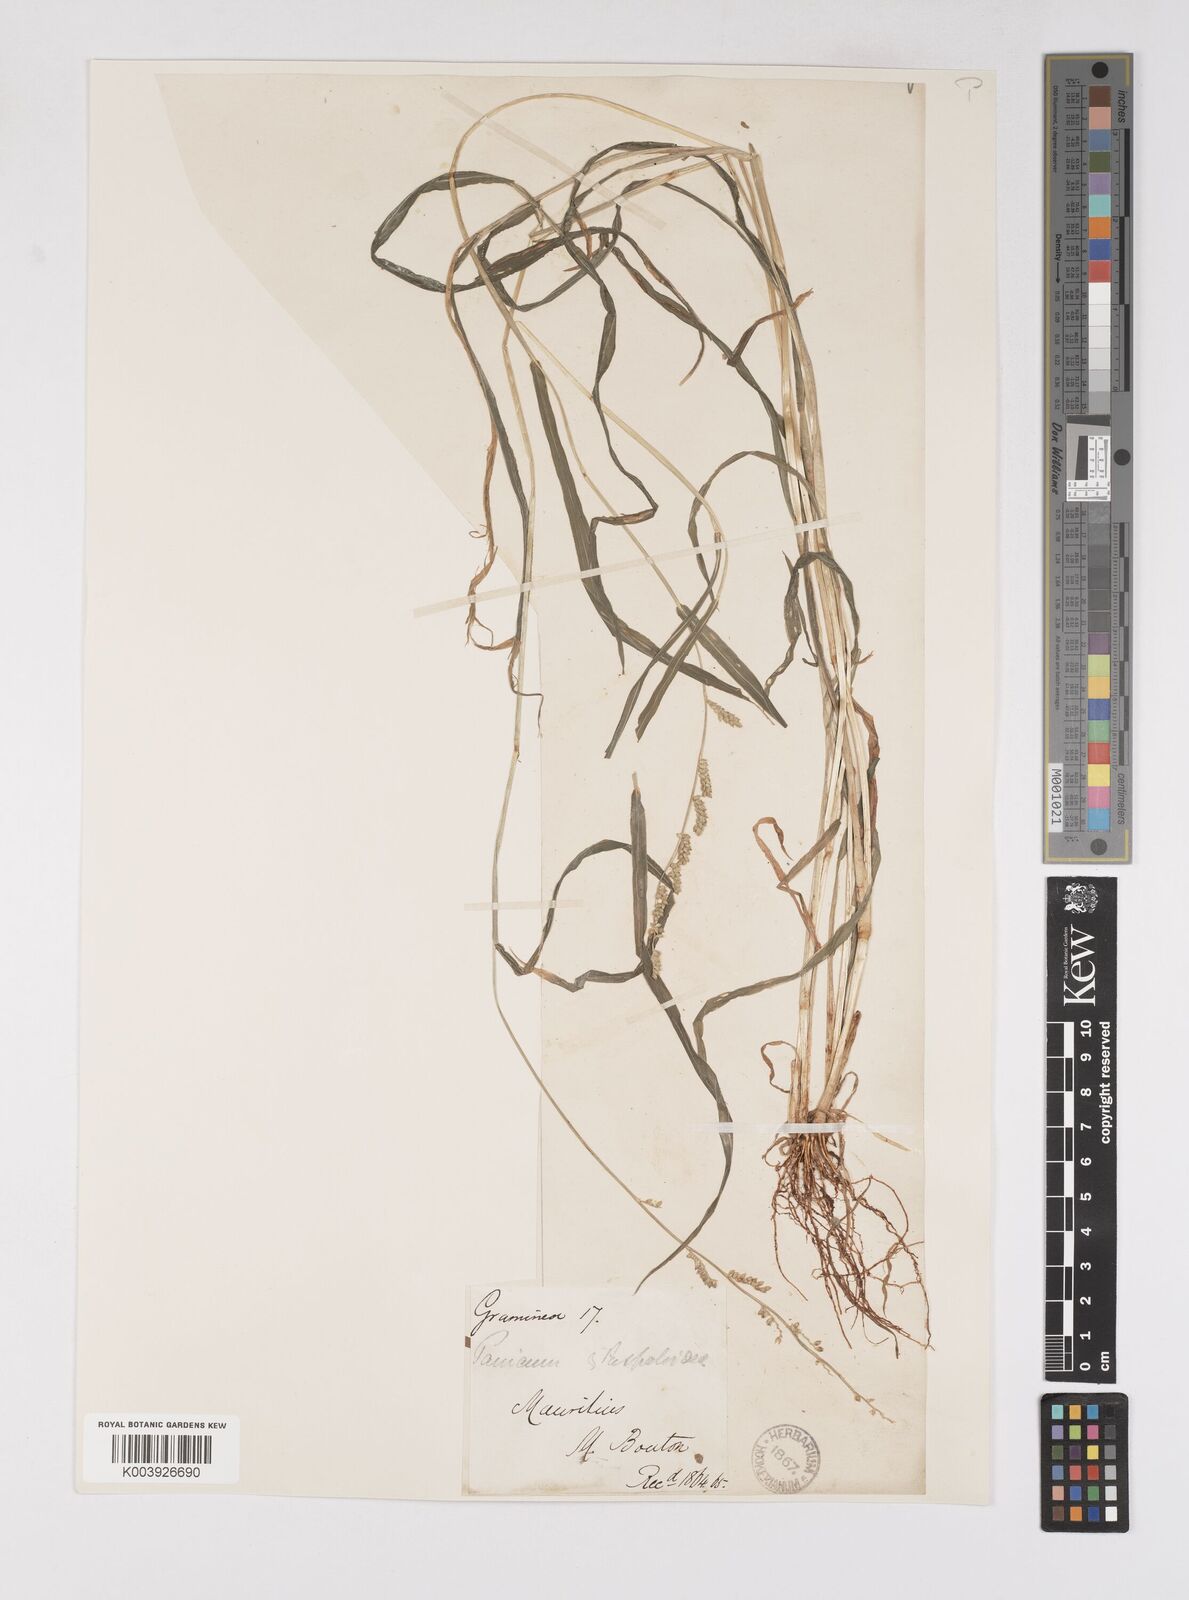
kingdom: Plantae
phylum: Tracheophyta
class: Liliopsida
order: Poales
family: Poaceae
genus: Echinochloa
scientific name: Echinochloa colonum
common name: Jungle rice
